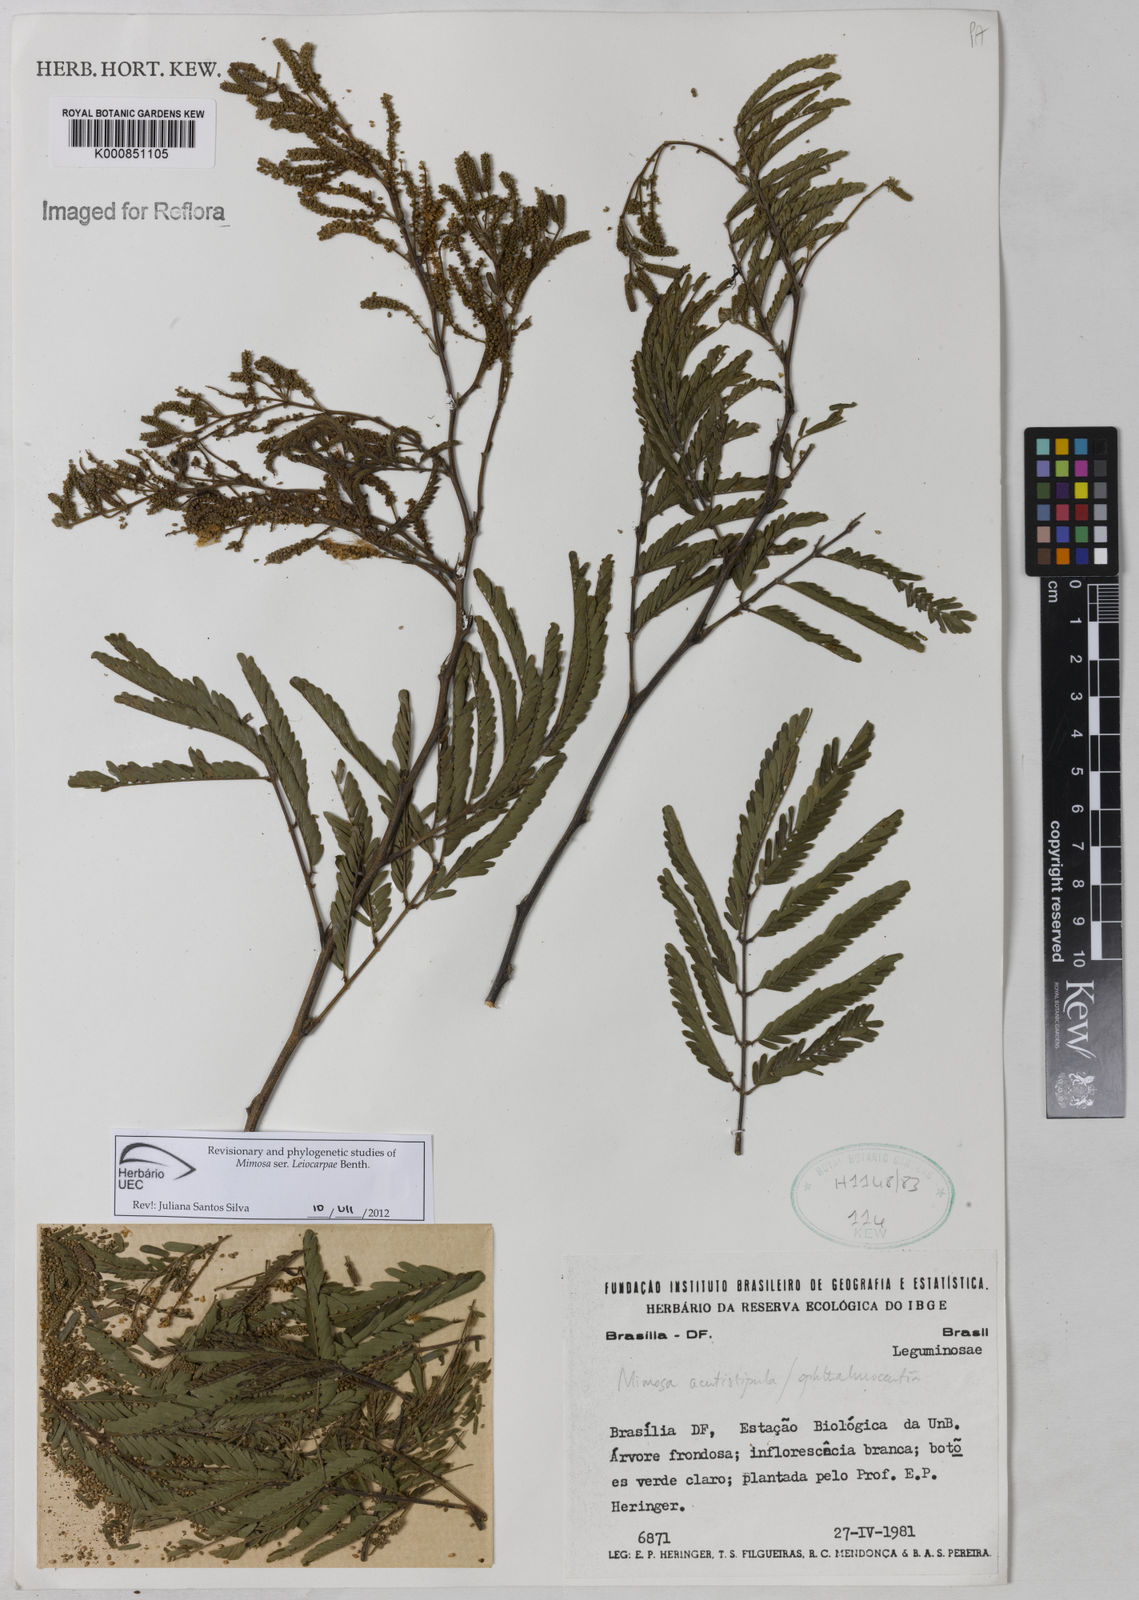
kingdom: Plantae
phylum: Tracheophyta
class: Magnoliopsida
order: Fabales
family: Fabaceae
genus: Mimosa
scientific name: Mimosa acutistipula
